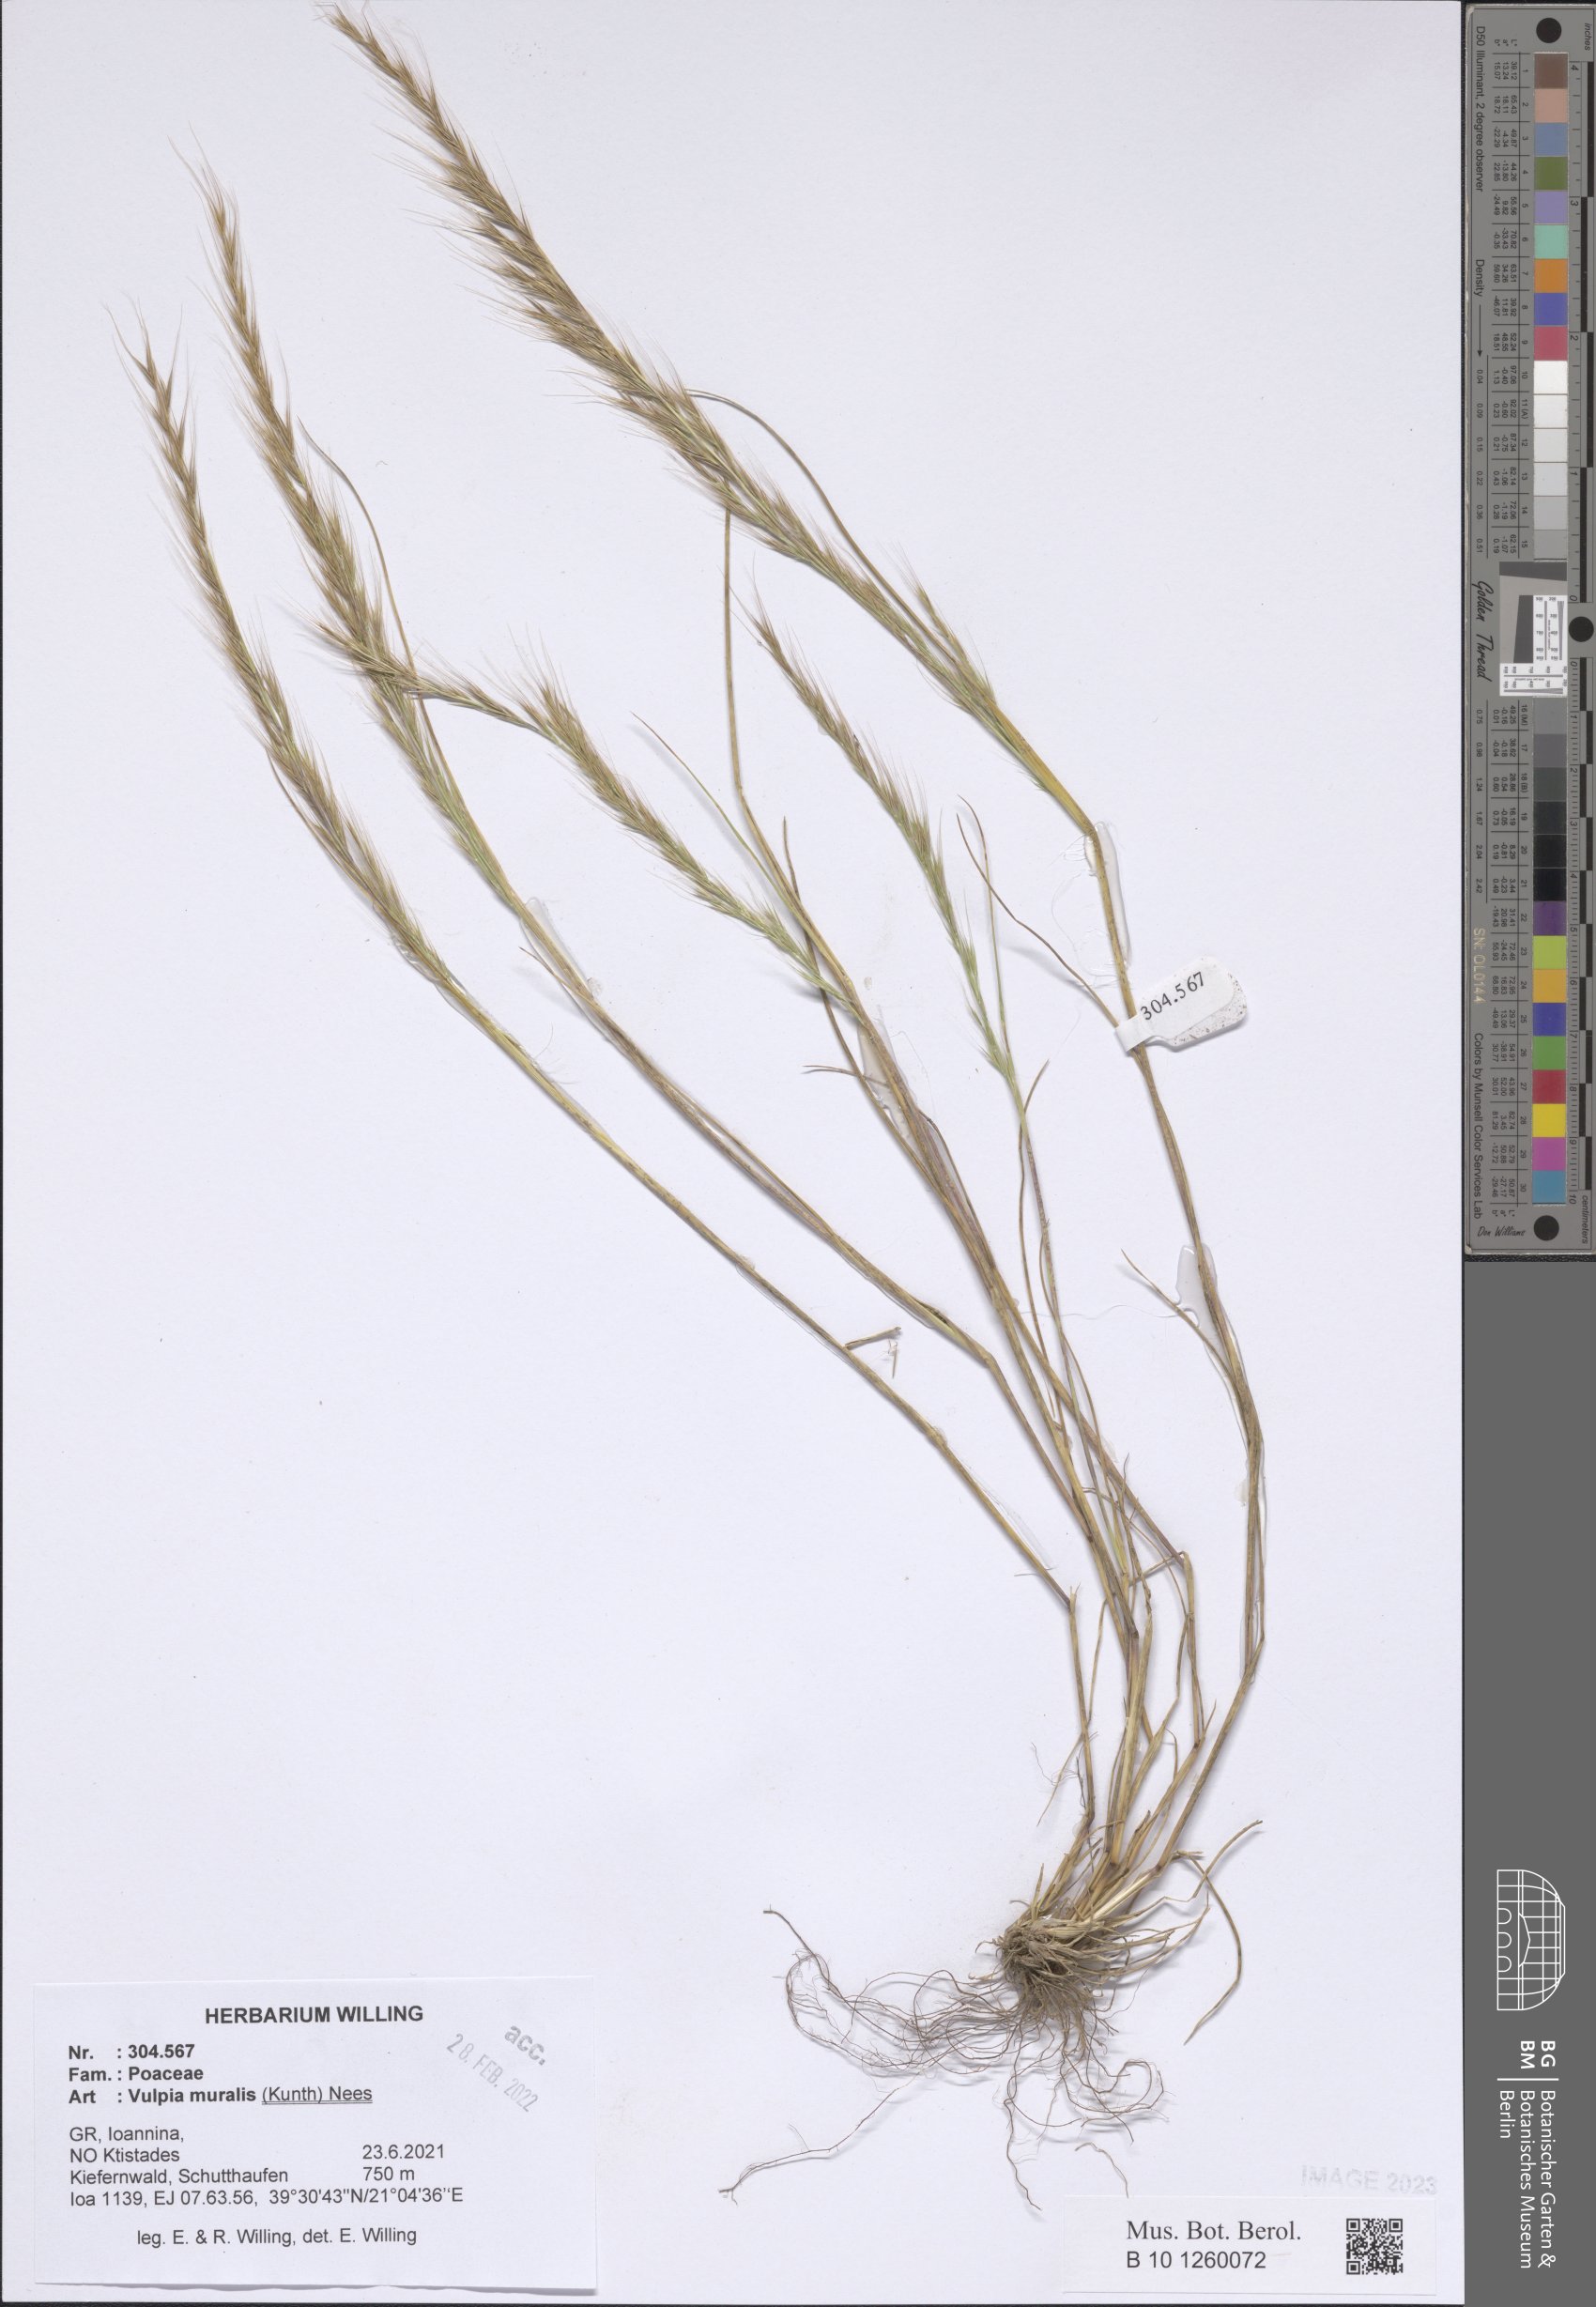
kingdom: Plantae
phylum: Tracheophyta
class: Liliopsida
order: Poales
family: Poaceae
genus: Festuca
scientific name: Festuca muralis
